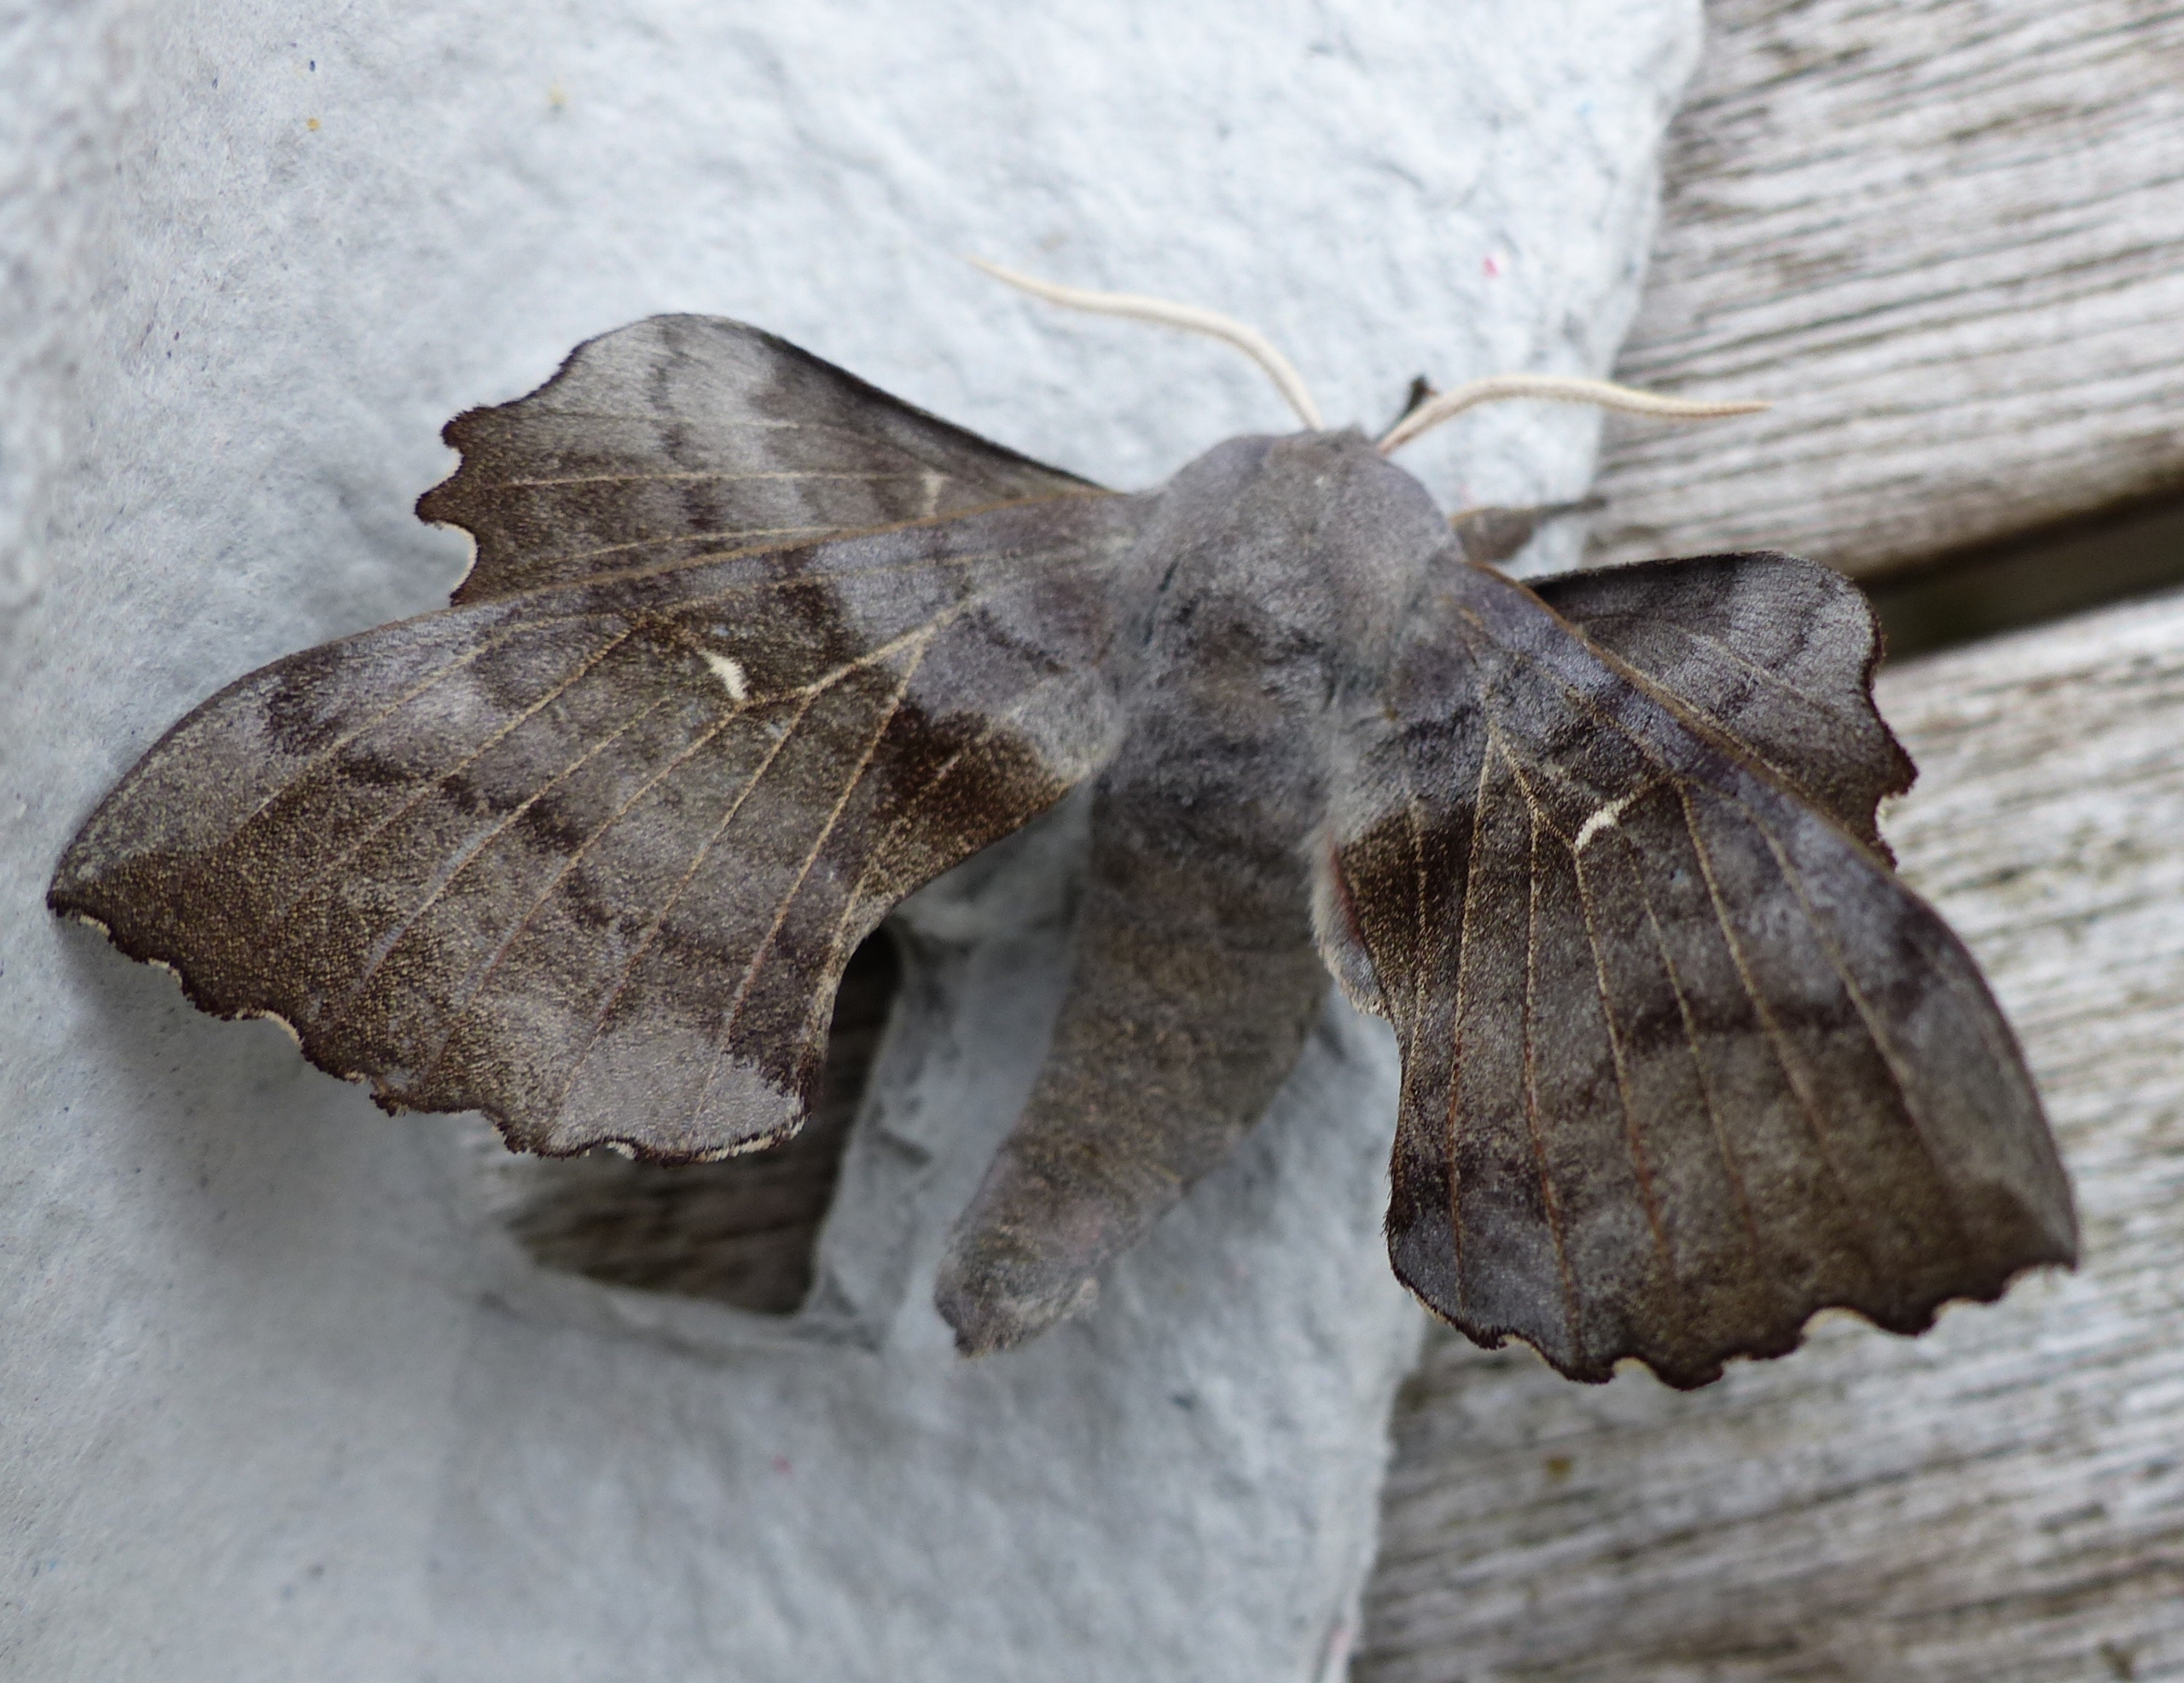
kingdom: Animalia
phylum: Arthropoda
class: Insecta
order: Lepidoptera
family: Sphingidae
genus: Laothoe
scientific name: Laothoe populi
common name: Poppelsværmer
